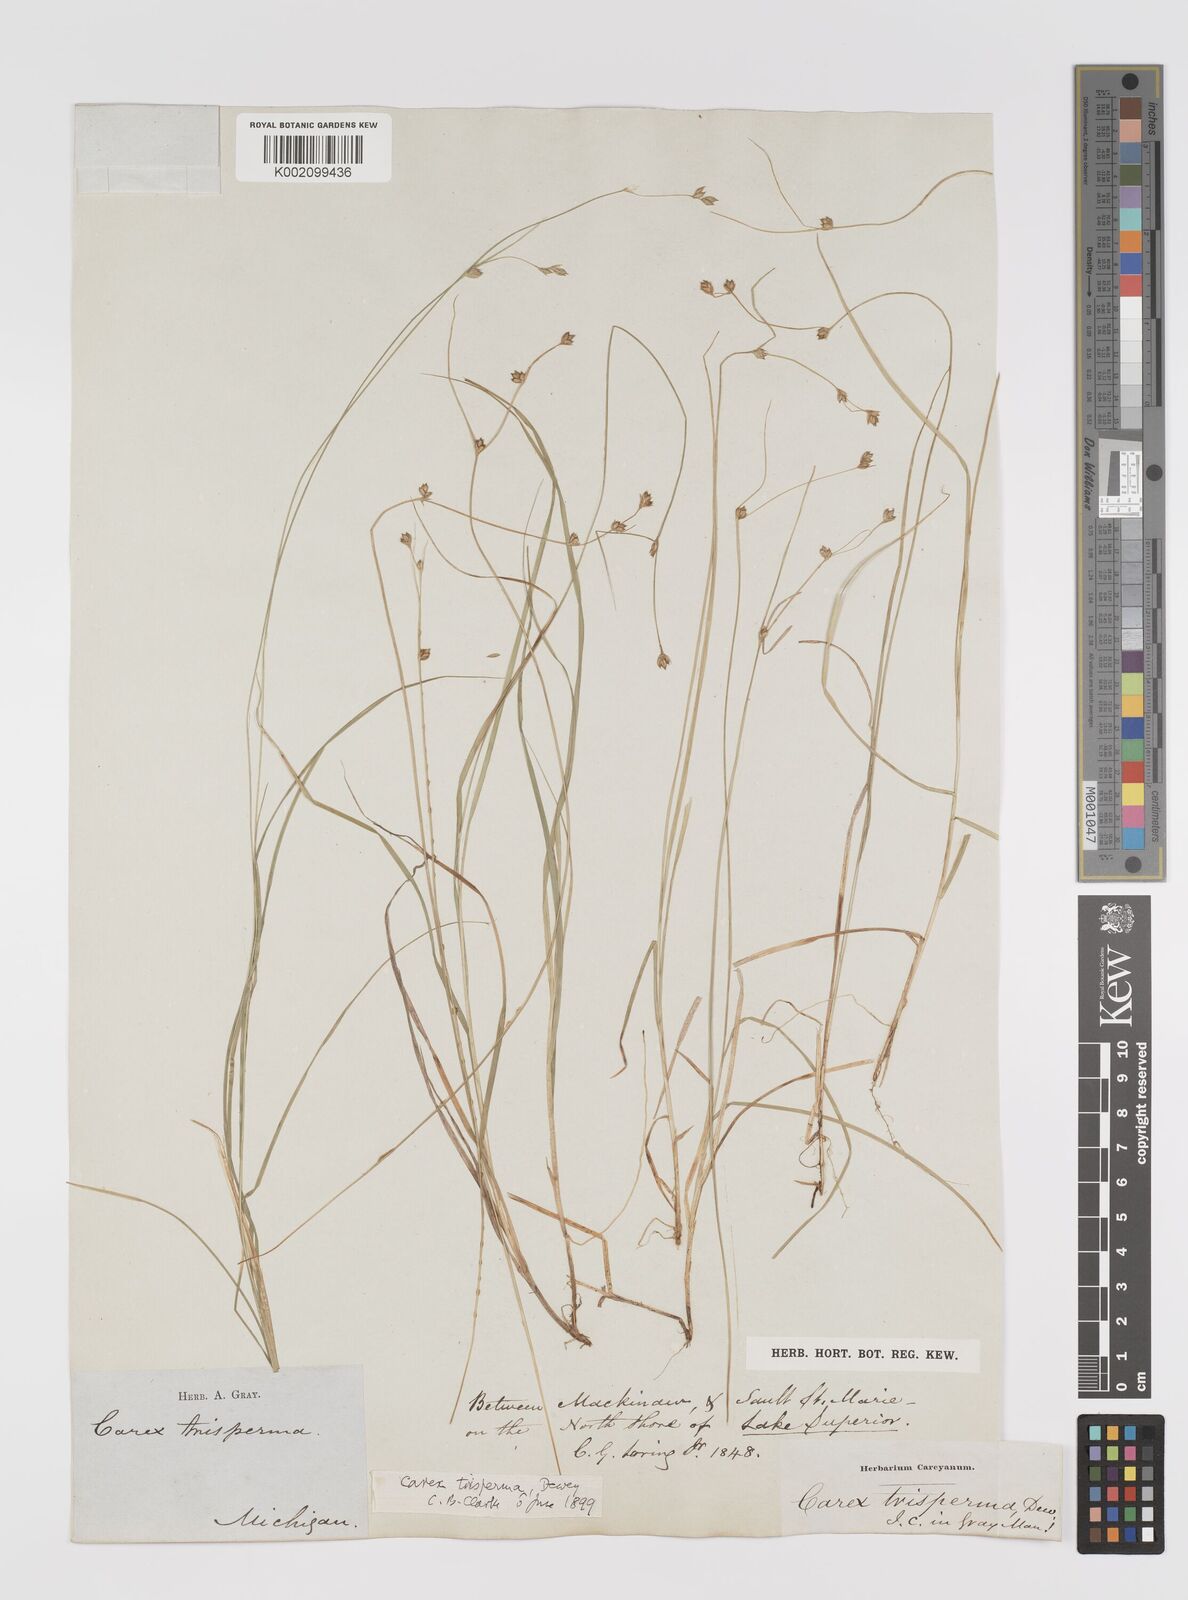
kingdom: Plantae
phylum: Tracheophyta
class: Liliopsida
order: Poales
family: Cyperaceae
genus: Carex
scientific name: Carex trisperma
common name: Three-seeded sedge
